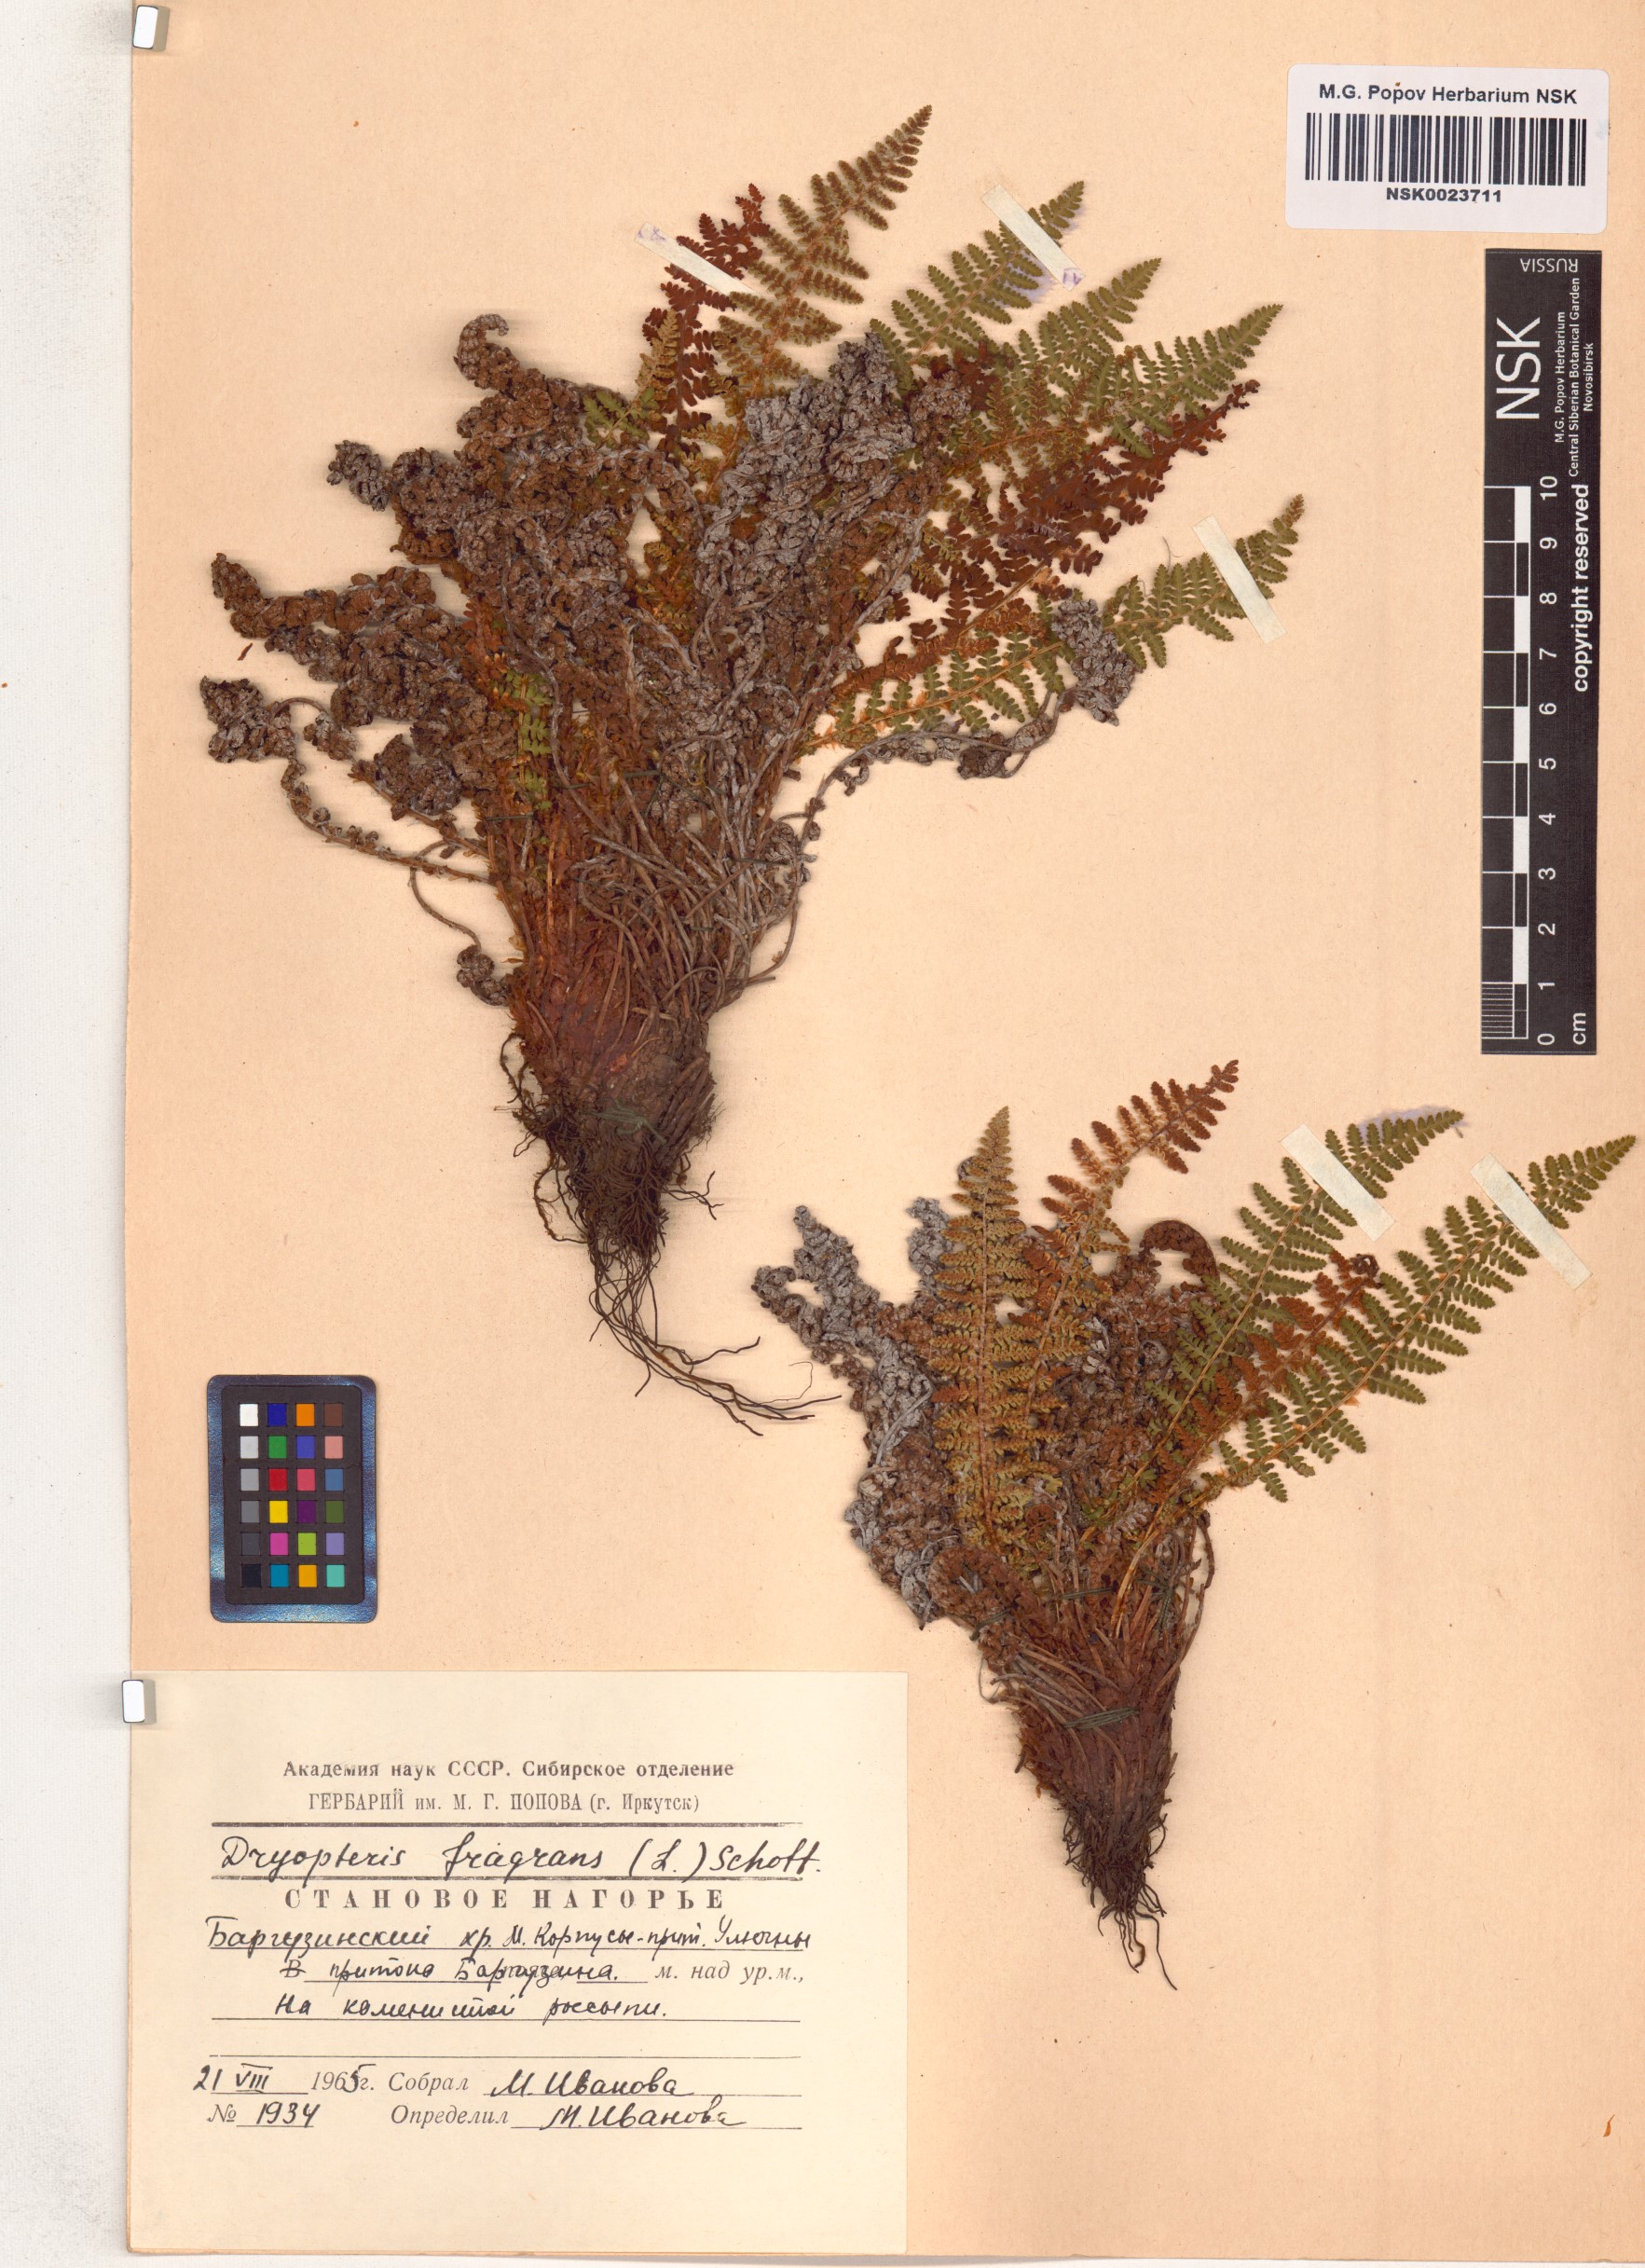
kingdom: Plantae
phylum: Tracheophyta
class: Polypodiopsida
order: Polypodiales
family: Dryopteridaceae
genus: Dryopteris
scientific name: Dryopteris fragrans
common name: Fragrant wood fern
